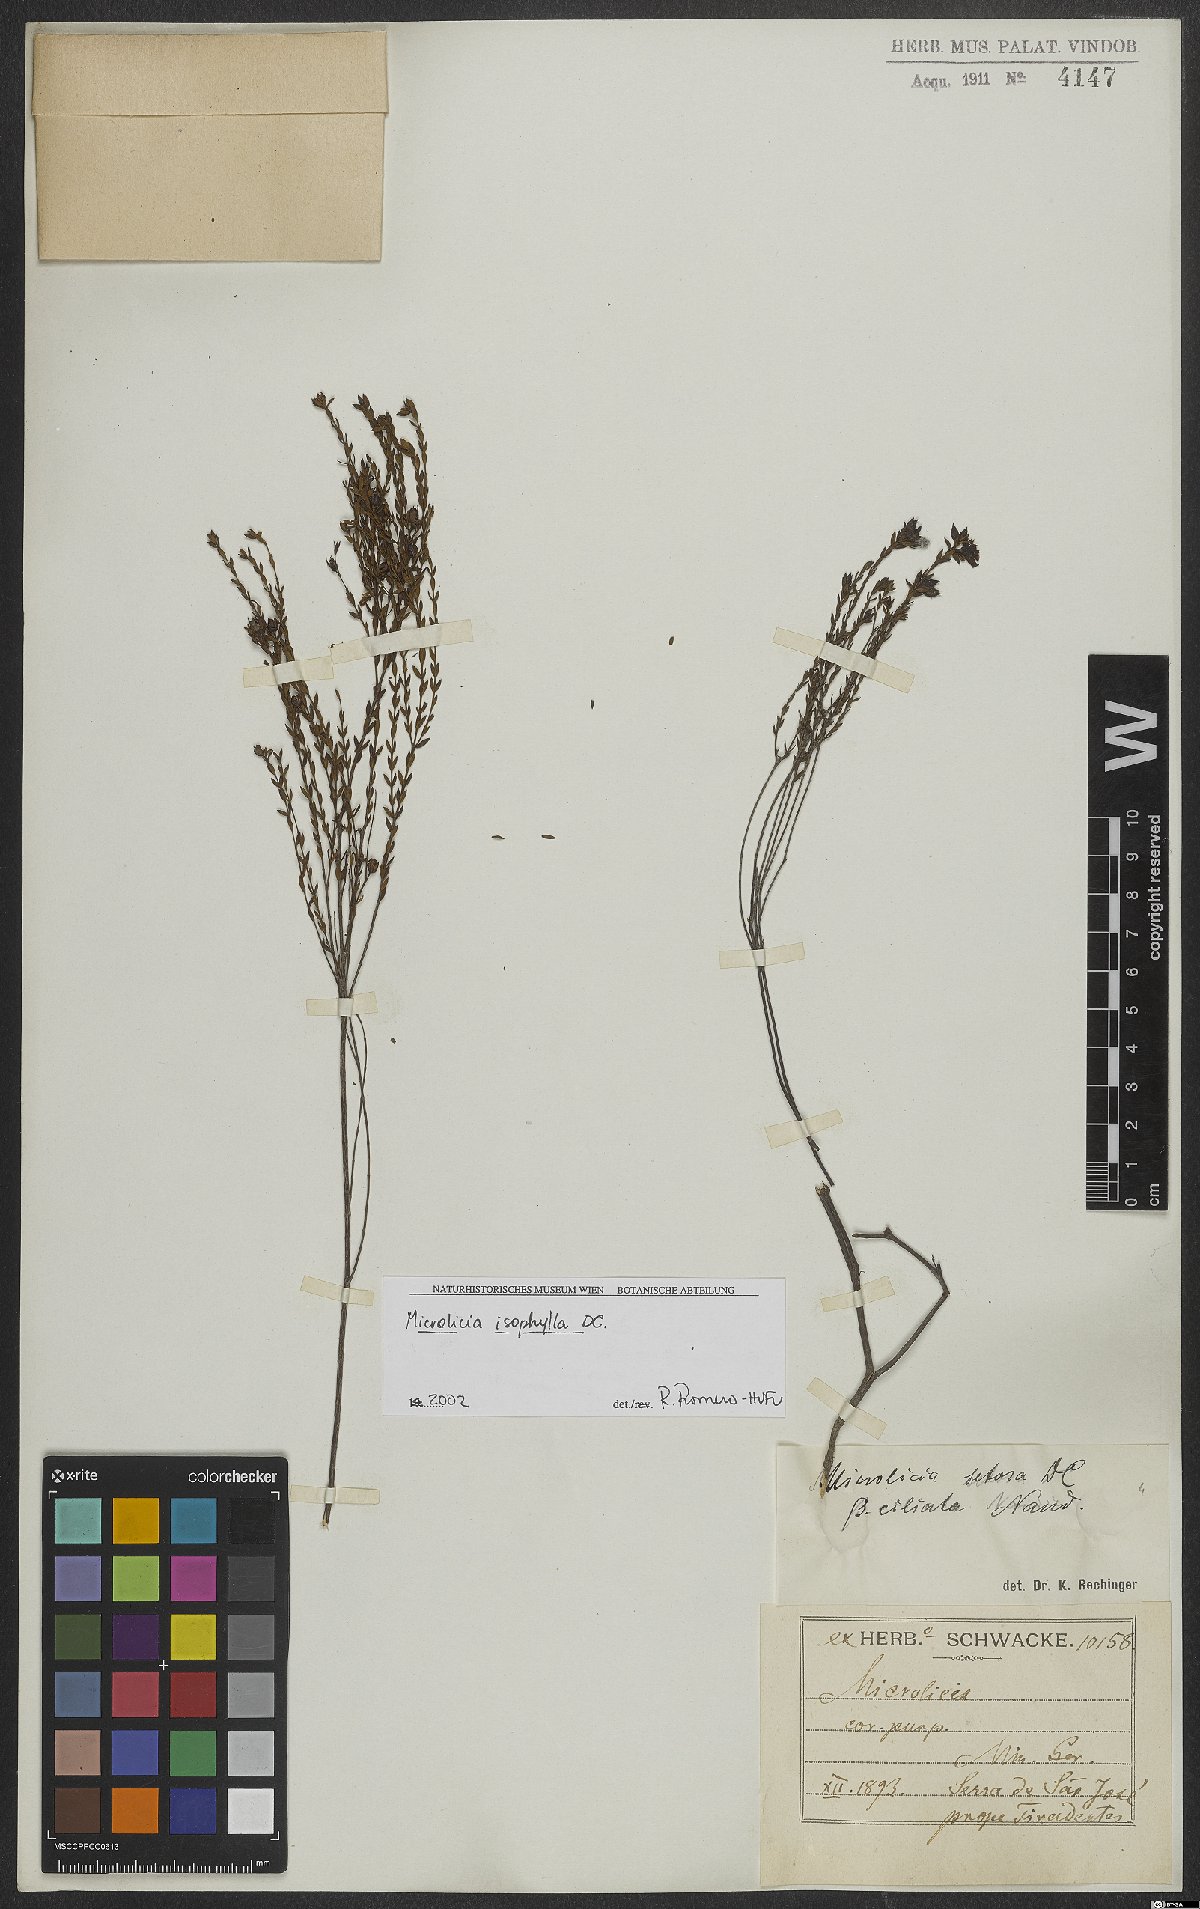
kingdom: Plantae
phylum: Tracheophyta
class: Magnoliopsida
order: Myrtales
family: Melastomataceae
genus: Microlicia
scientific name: Microlicia isophylla
